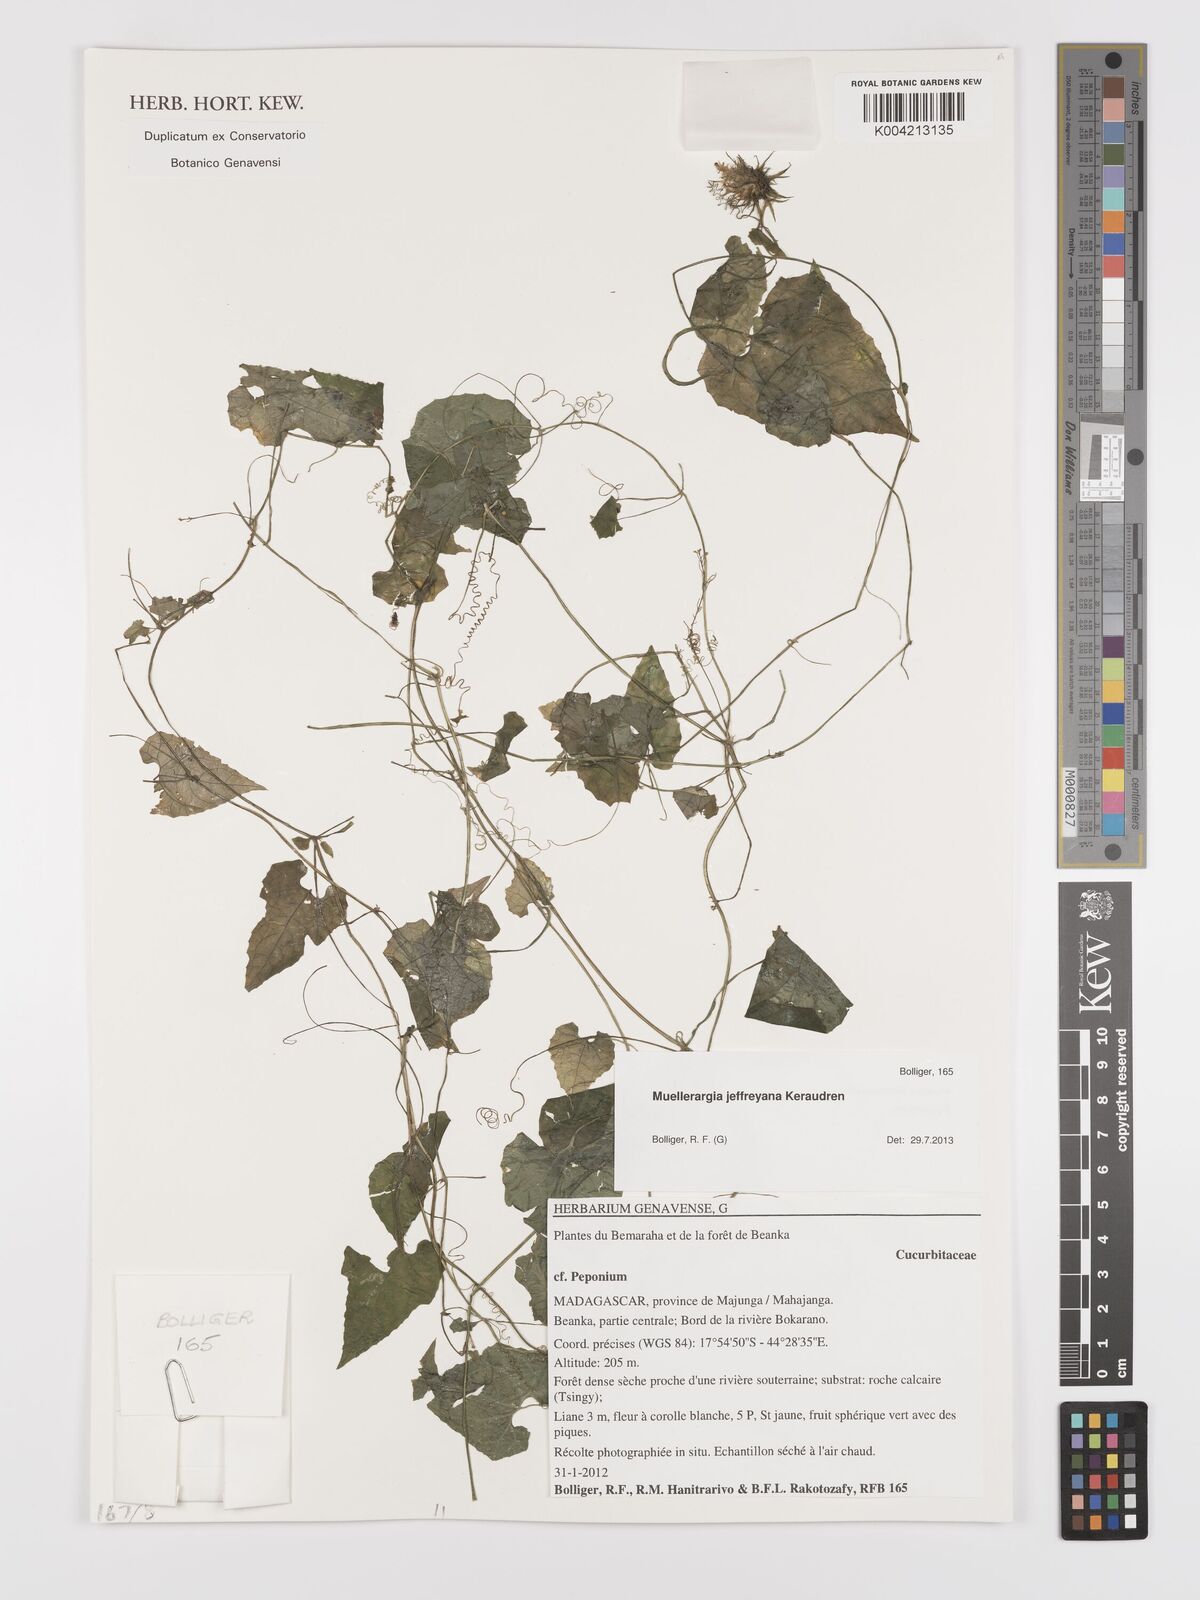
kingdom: Plantae
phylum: Tracheophyta
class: Magnoliopsida
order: Cucurbitales
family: Cucurbitaceae
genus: Muellerargia
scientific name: Muellerargia jeffreyana
